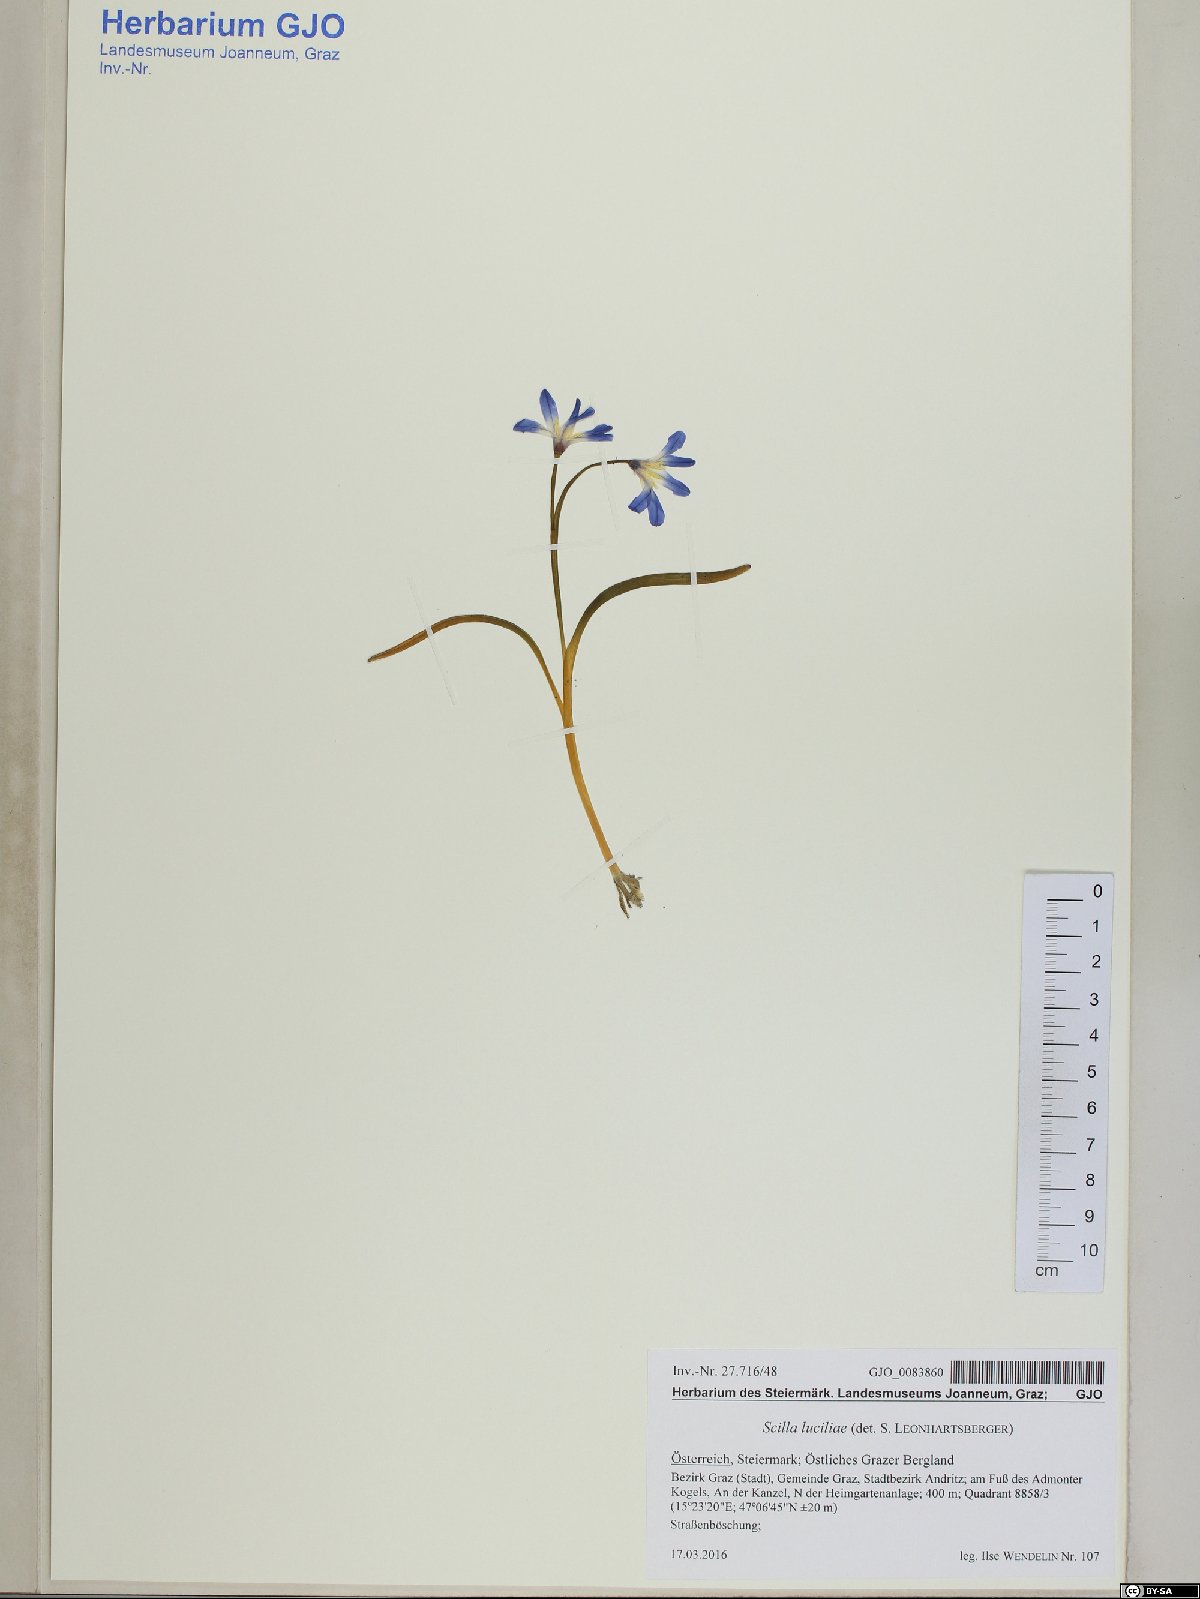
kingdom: Plantae
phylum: Tracheophyta
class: Liliopsida
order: Asparagales
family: Asparagaceae
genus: Scilla
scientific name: Scilla forbesii
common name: Glory-of-the-snow
